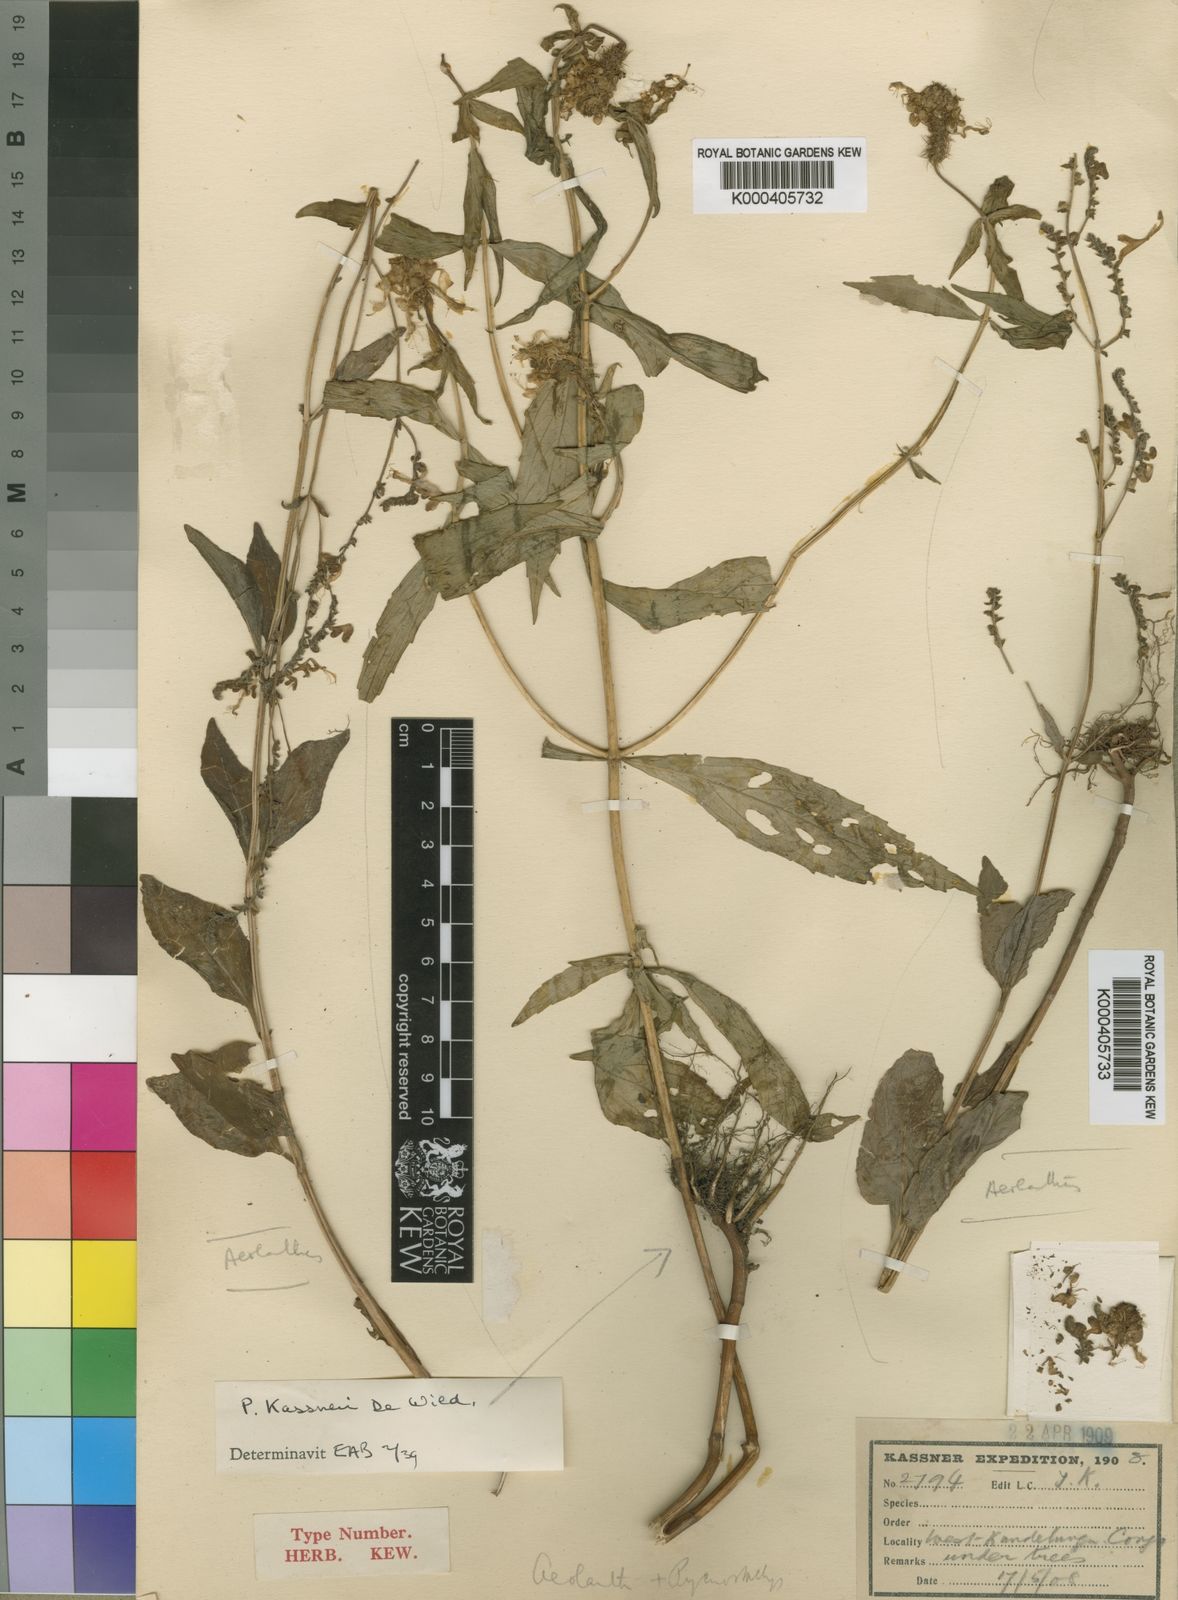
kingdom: Plantae
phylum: Tracheophyta
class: Magnoliopsida
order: Lamiales
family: Lamiaceae
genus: Coleus
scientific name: Coleus scruposus
